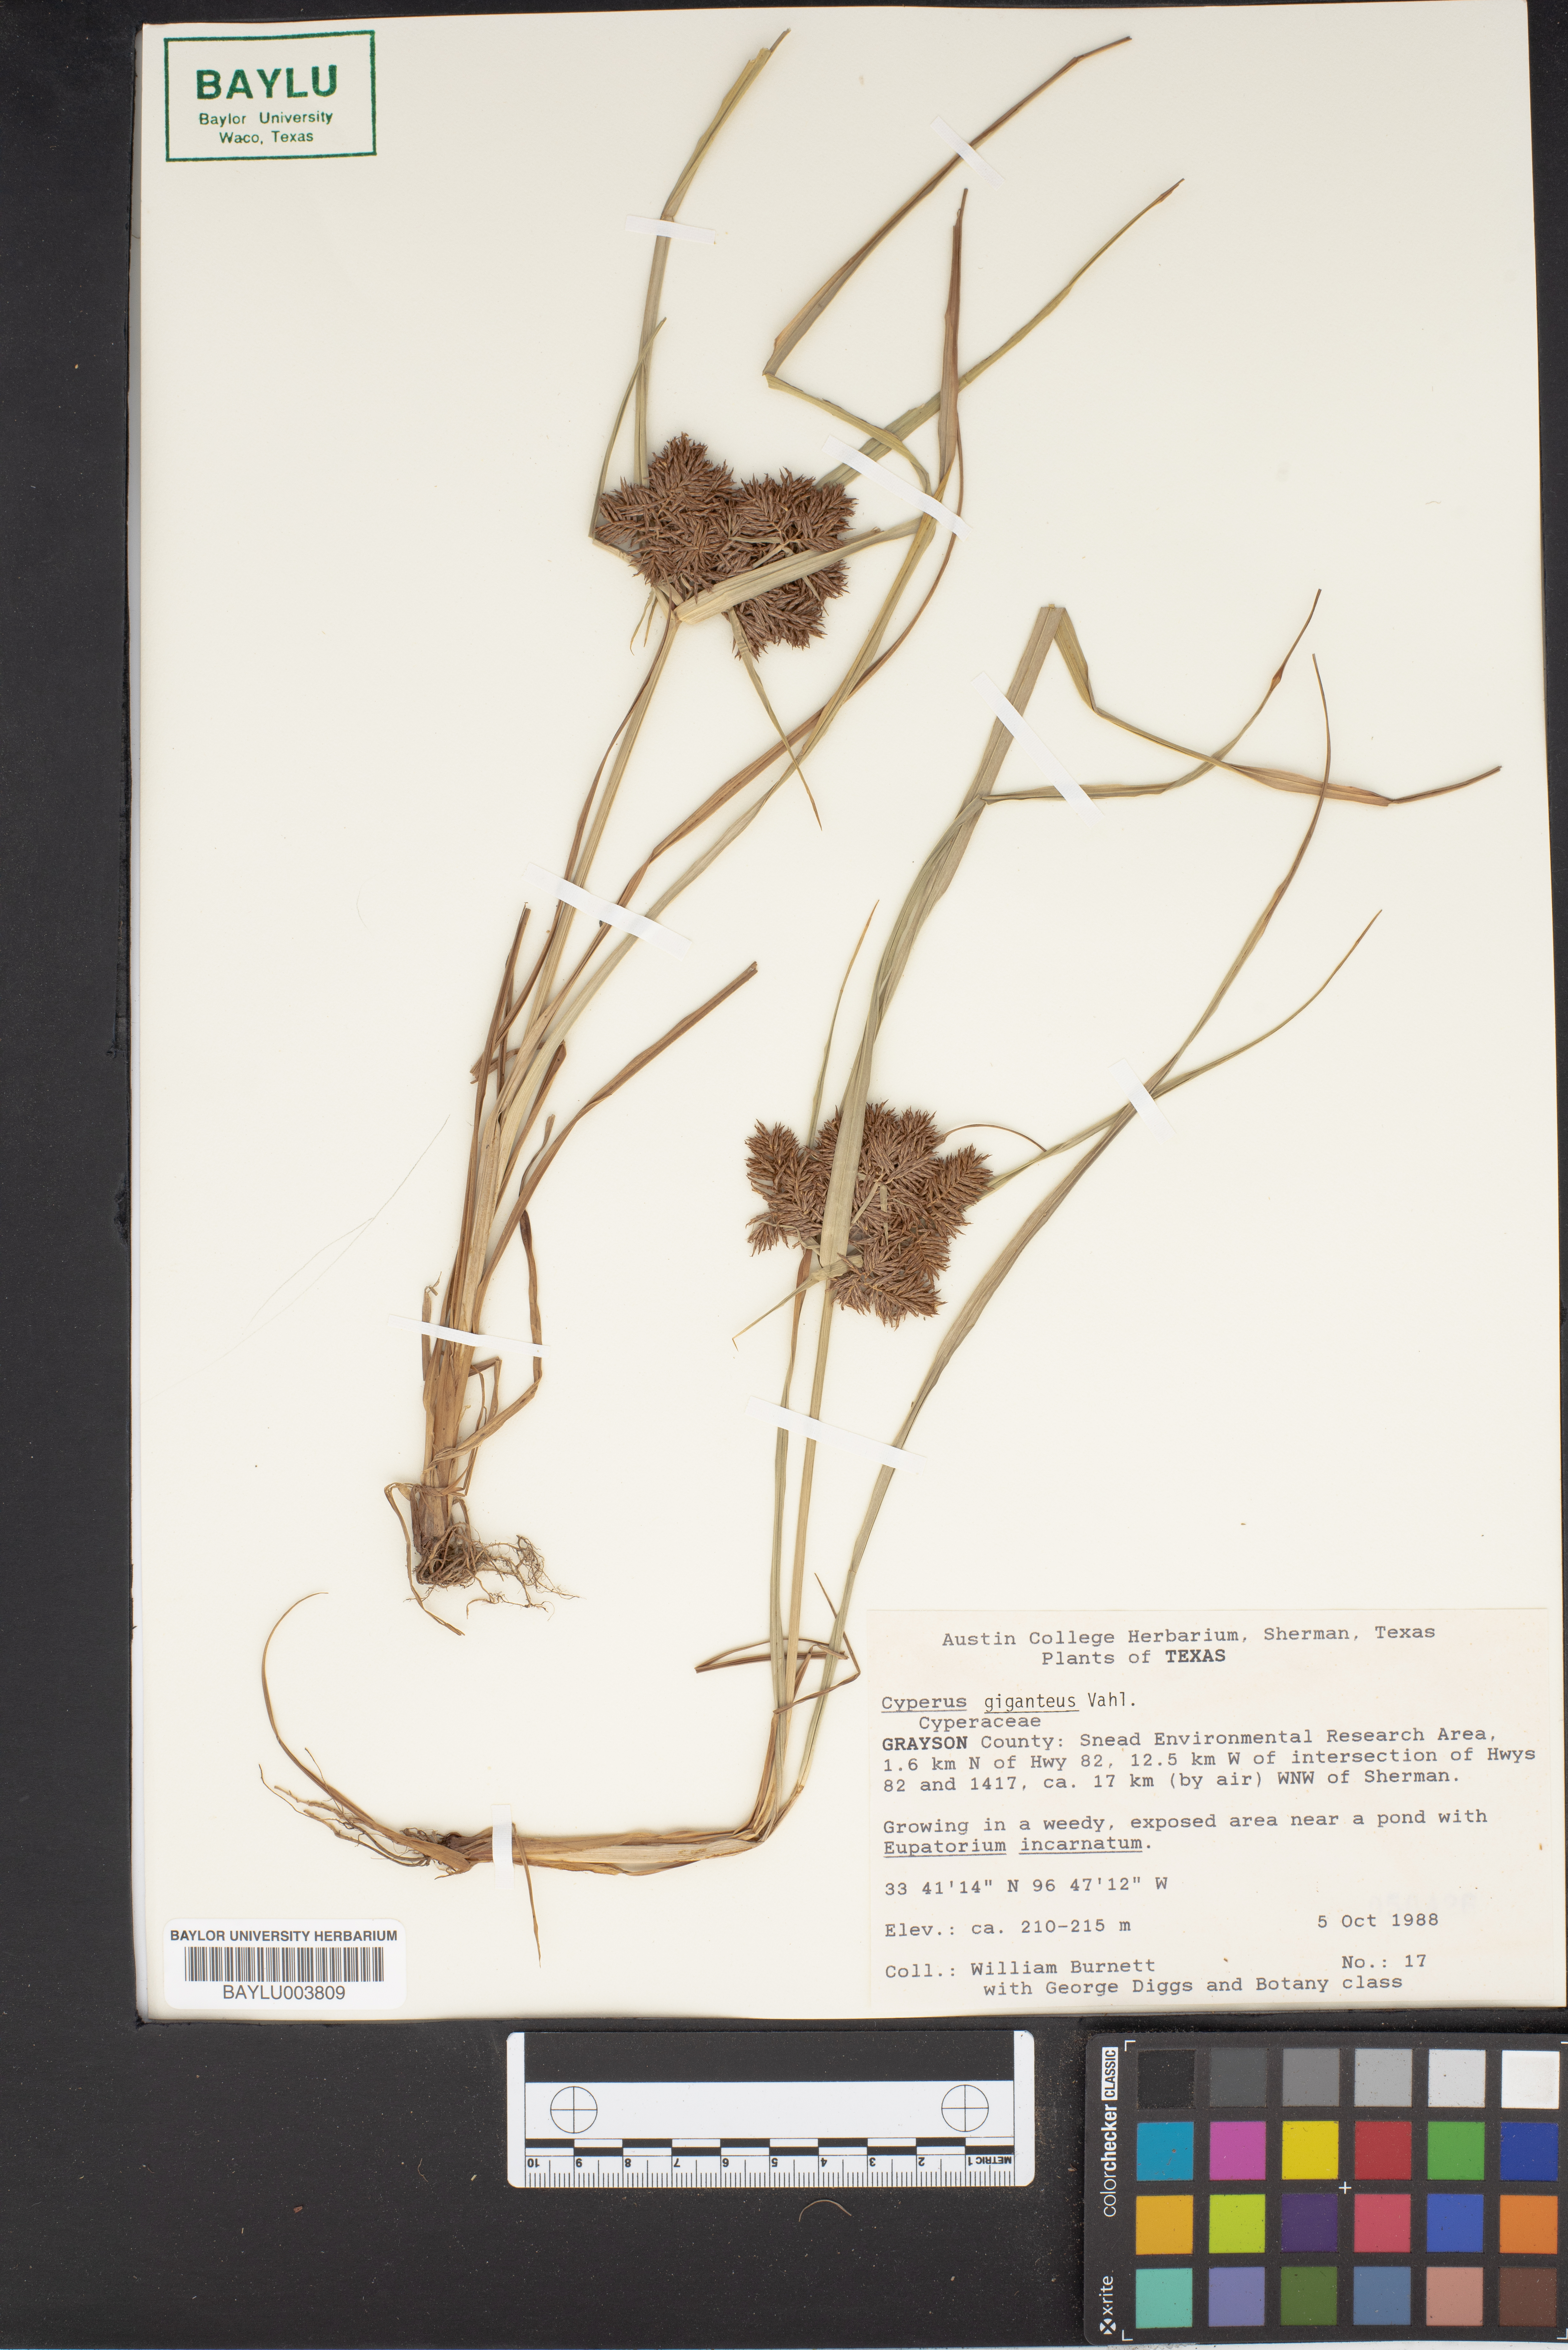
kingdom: Plantae
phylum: Tracheophyta
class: Liliopsida
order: Poales
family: Cyperaceae
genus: Cyperus
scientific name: Cyperus giganteus
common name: Giant flat sedge
